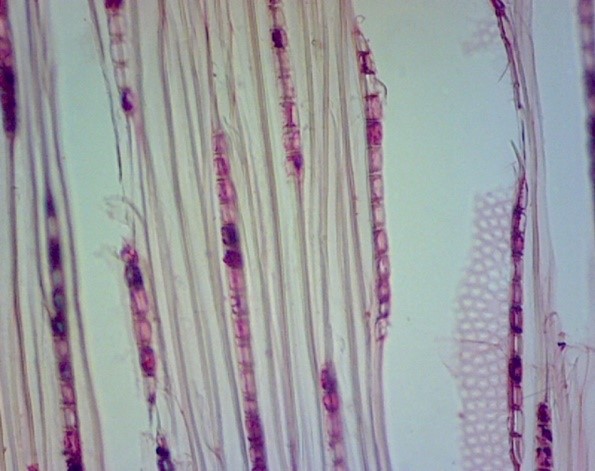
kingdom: Plantae
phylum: Tracheophyta
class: Magnoliopsida
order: Malpighiales
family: Salicaceae
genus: Populus
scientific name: Populus
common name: Álamo
